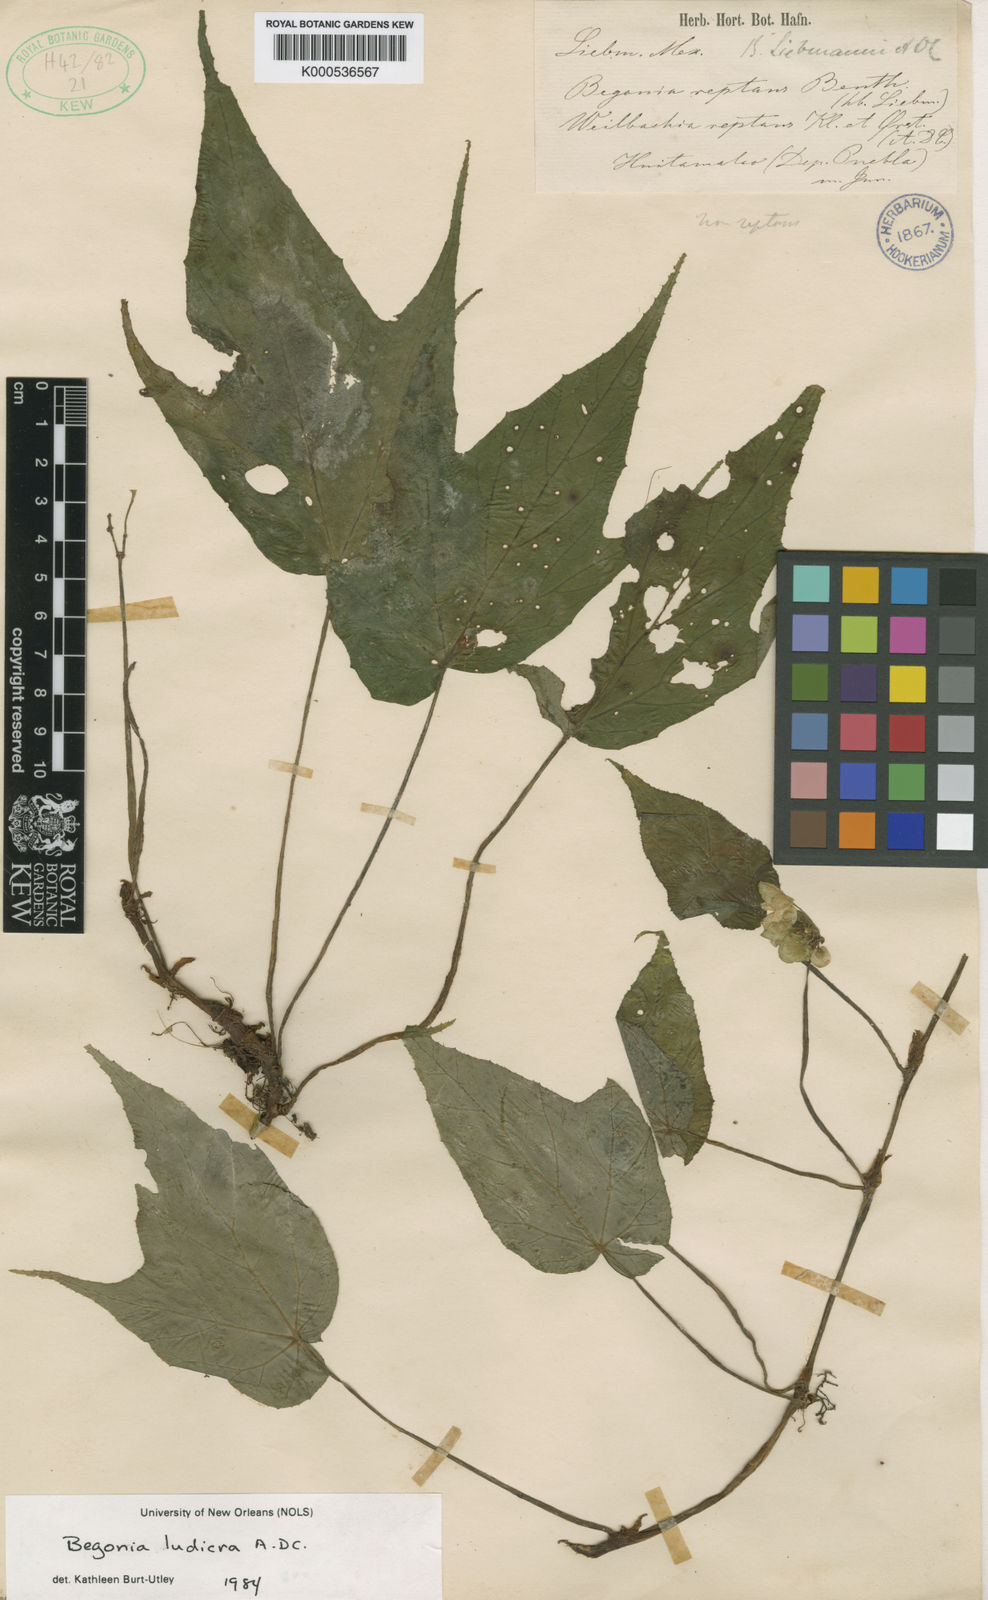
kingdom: Plantae
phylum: Tracheophyta
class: Magnoliopsida
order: Cucurbitales
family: Begoniaceae
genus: Begonia
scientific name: Begonia ludicra
